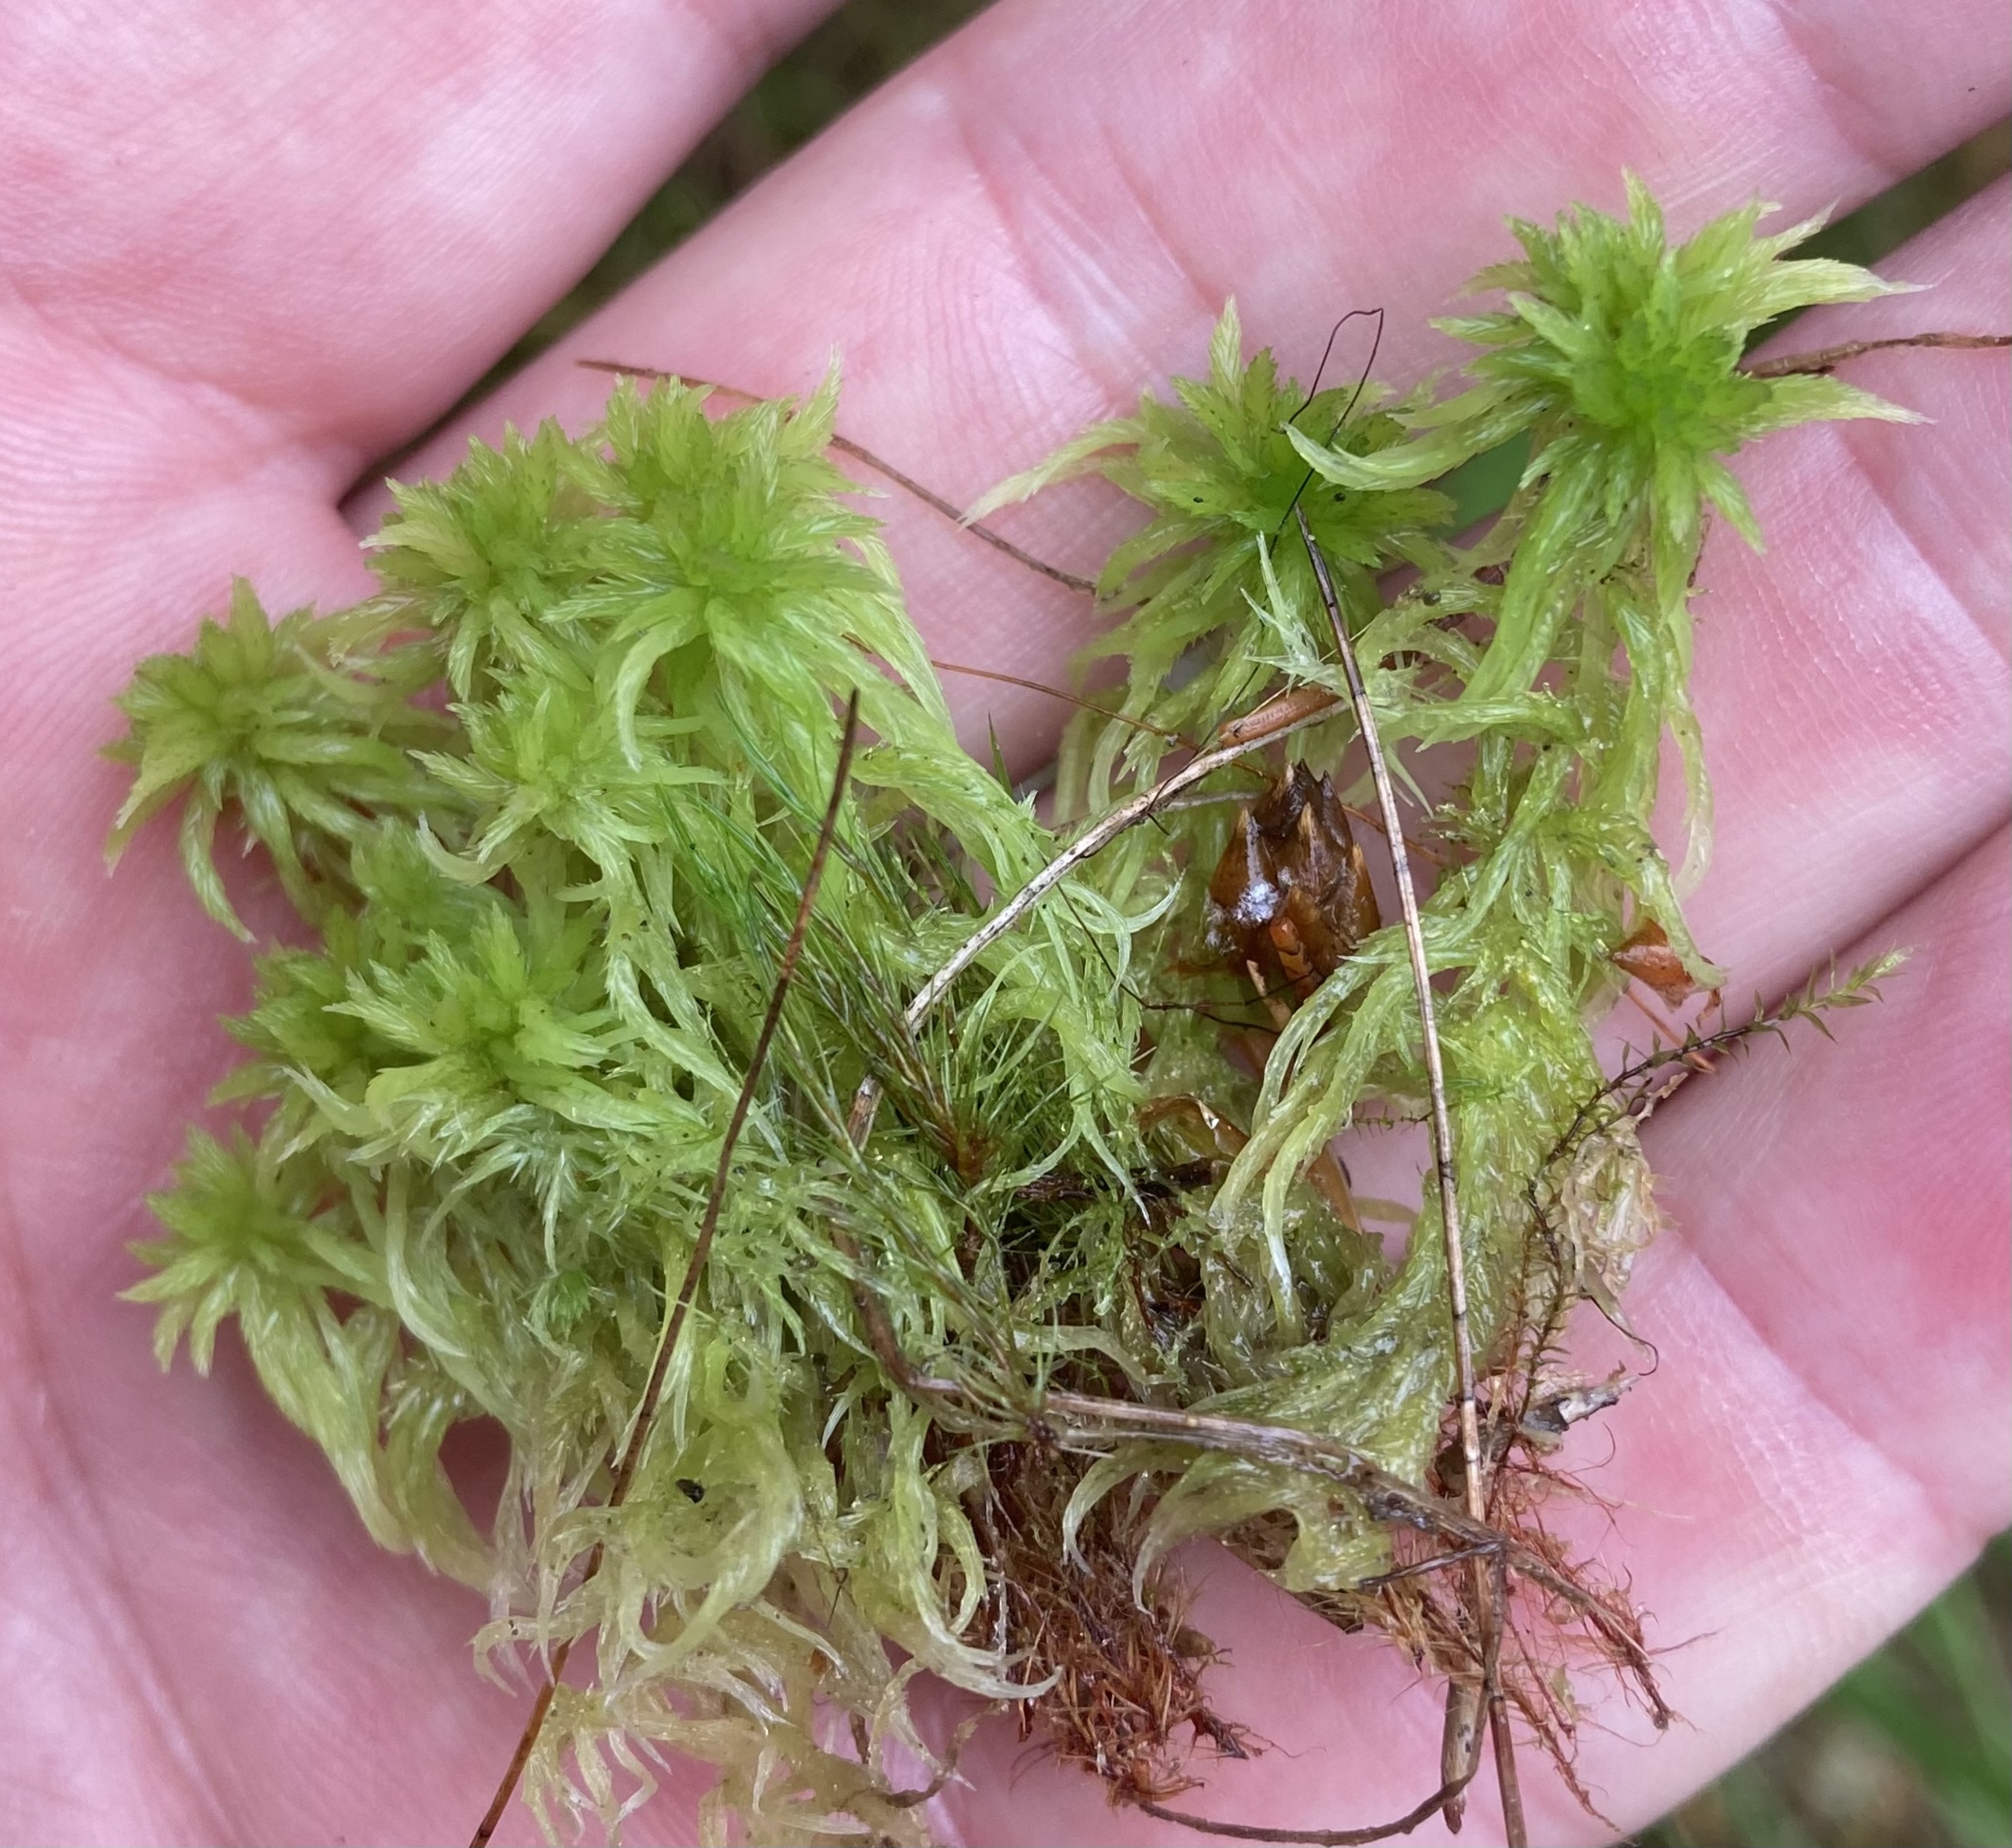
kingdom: Plantae
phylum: Bryophyta
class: Sphagnopsida
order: Sphagnales
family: Sphagnaceae
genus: Sphagnum
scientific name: Sphagnum
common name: Tørvemosslægten
